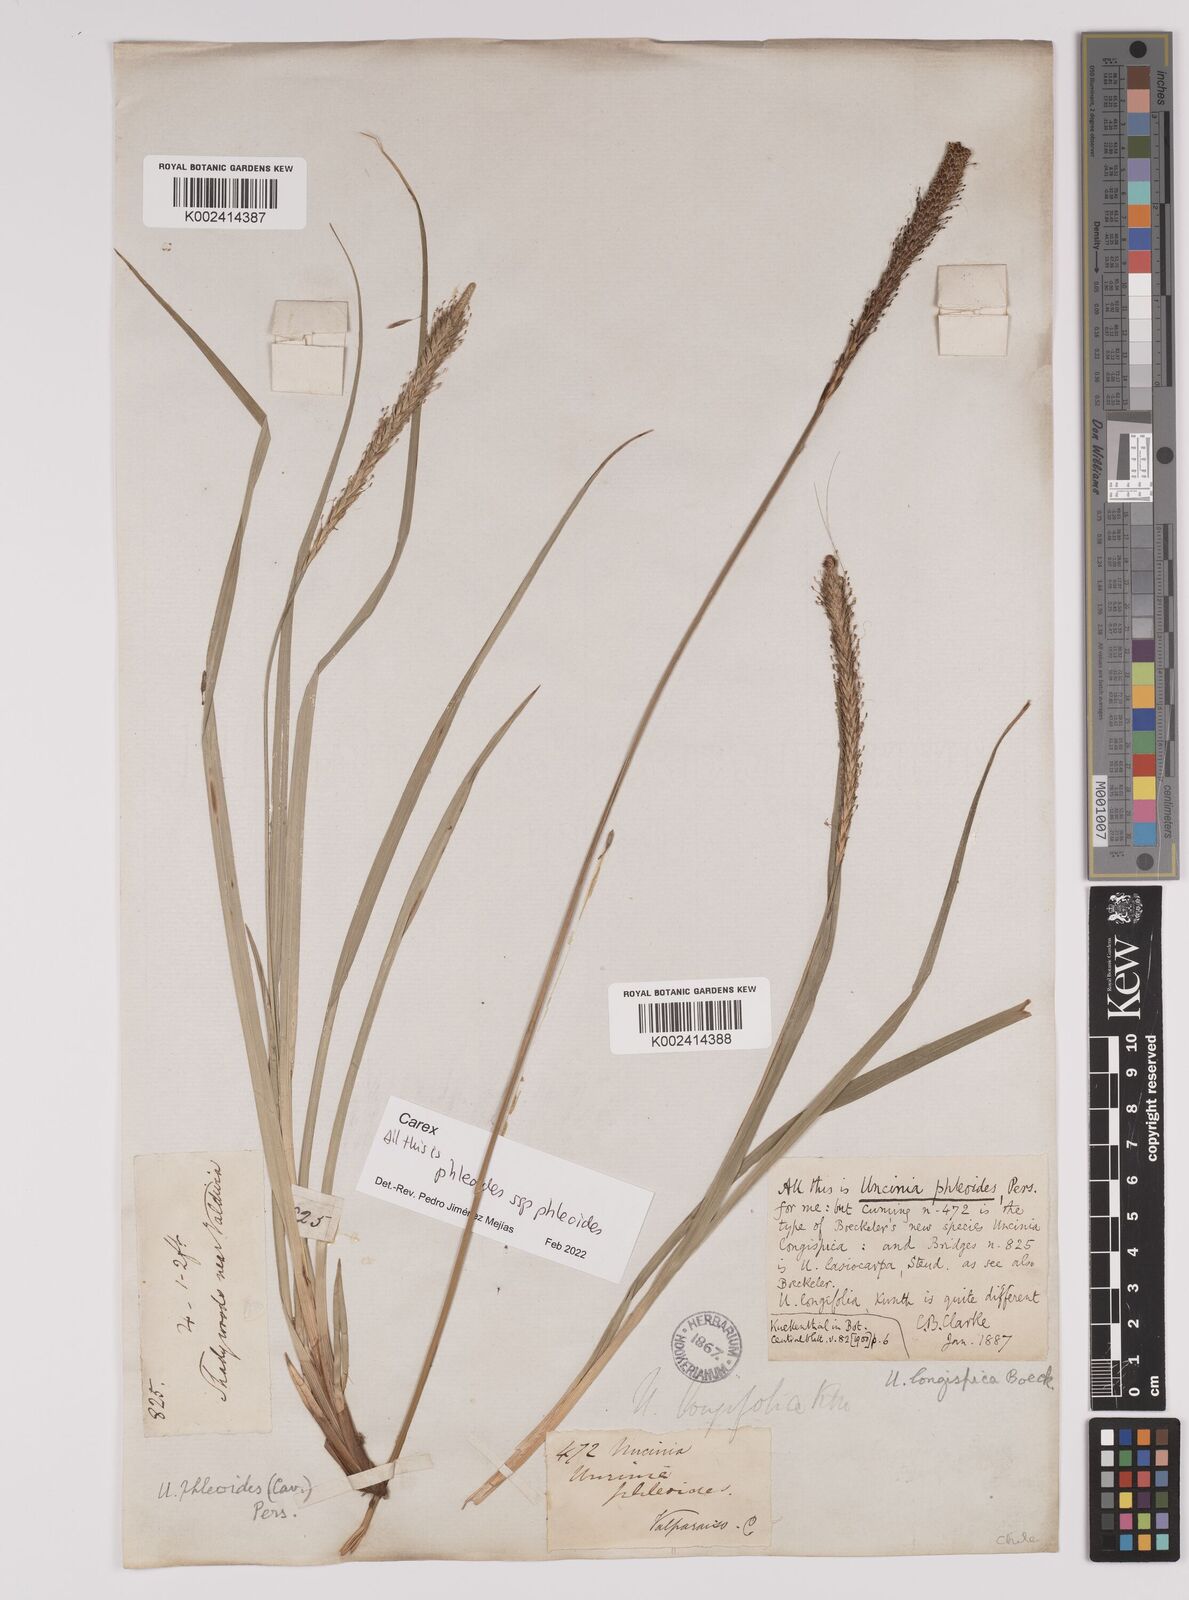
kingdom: Plantae
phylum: Tracheophyta
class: Liliopsida
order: Poales
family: Cyperaceae
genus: Carex
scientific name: Carex phleoides
